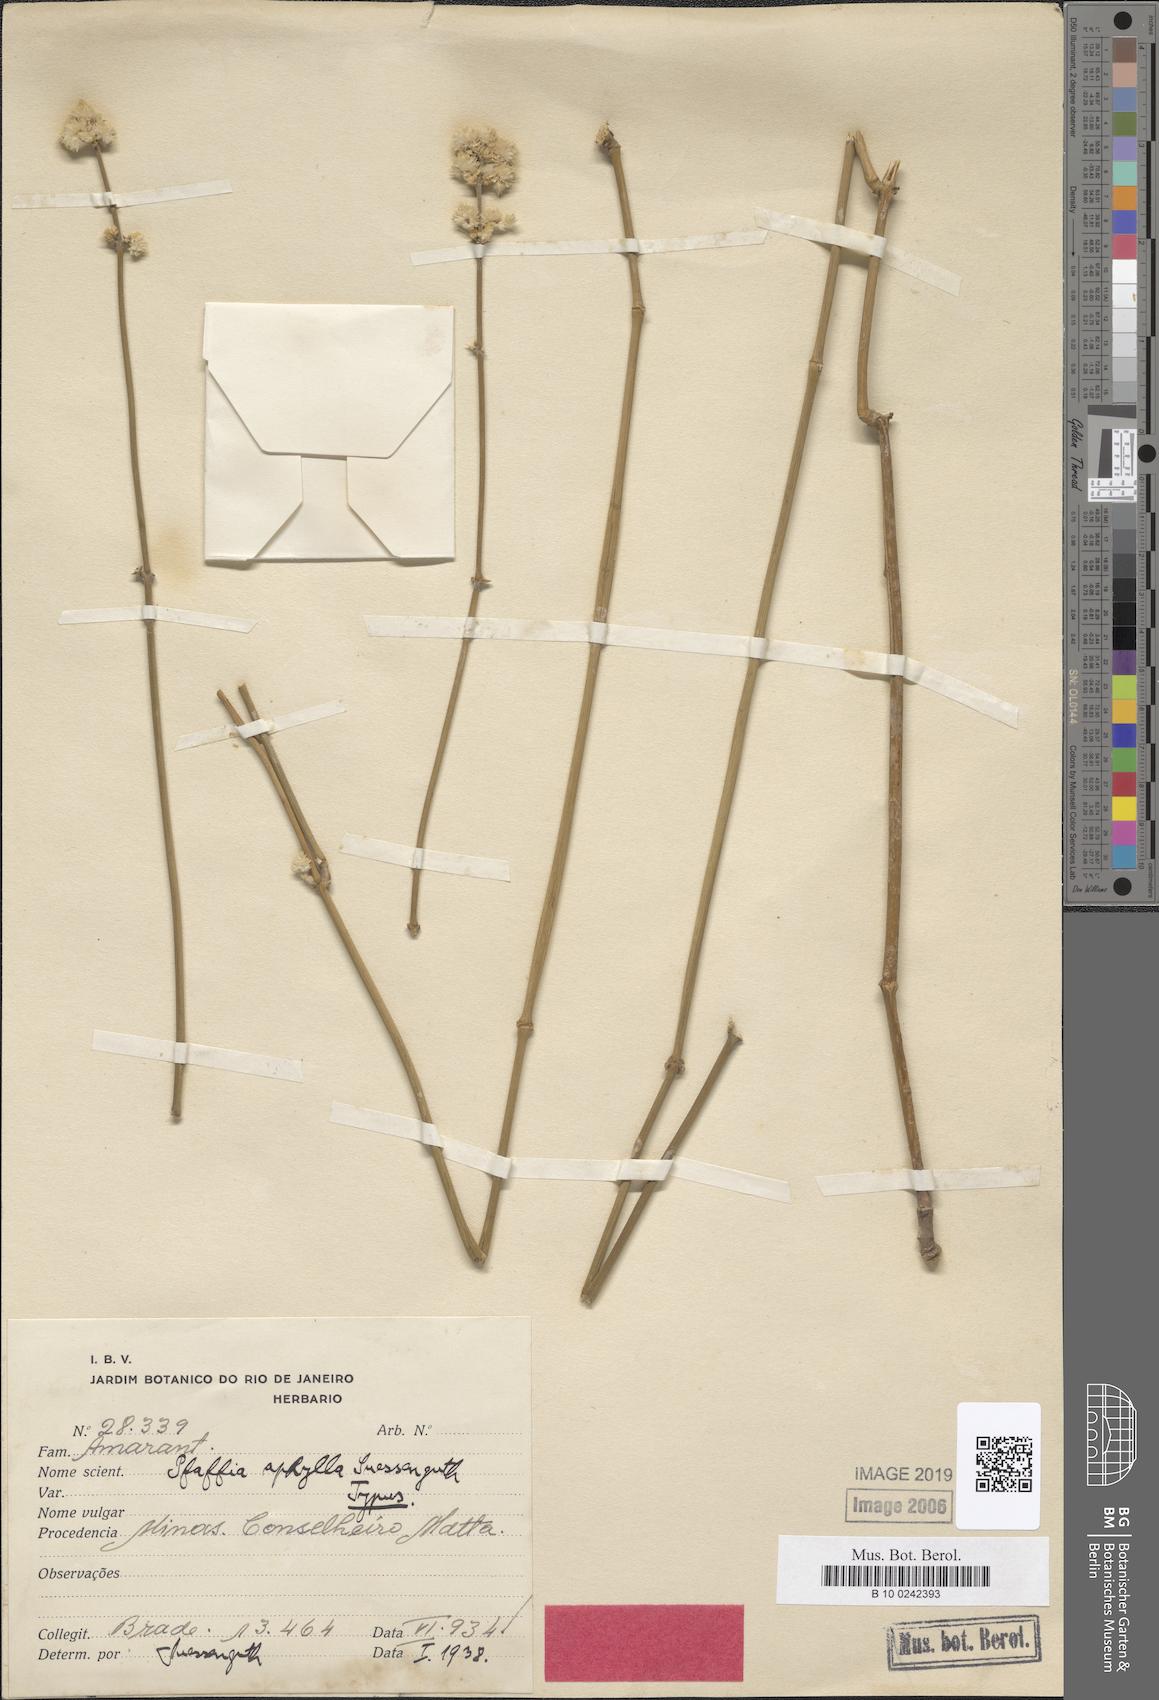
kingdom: Plantae
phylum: Tracheophyta
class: Magnoliopsida
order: Caryophyllales
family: Amaranthaceae
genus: Pfaffia
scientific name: Pfaffia aphylla
